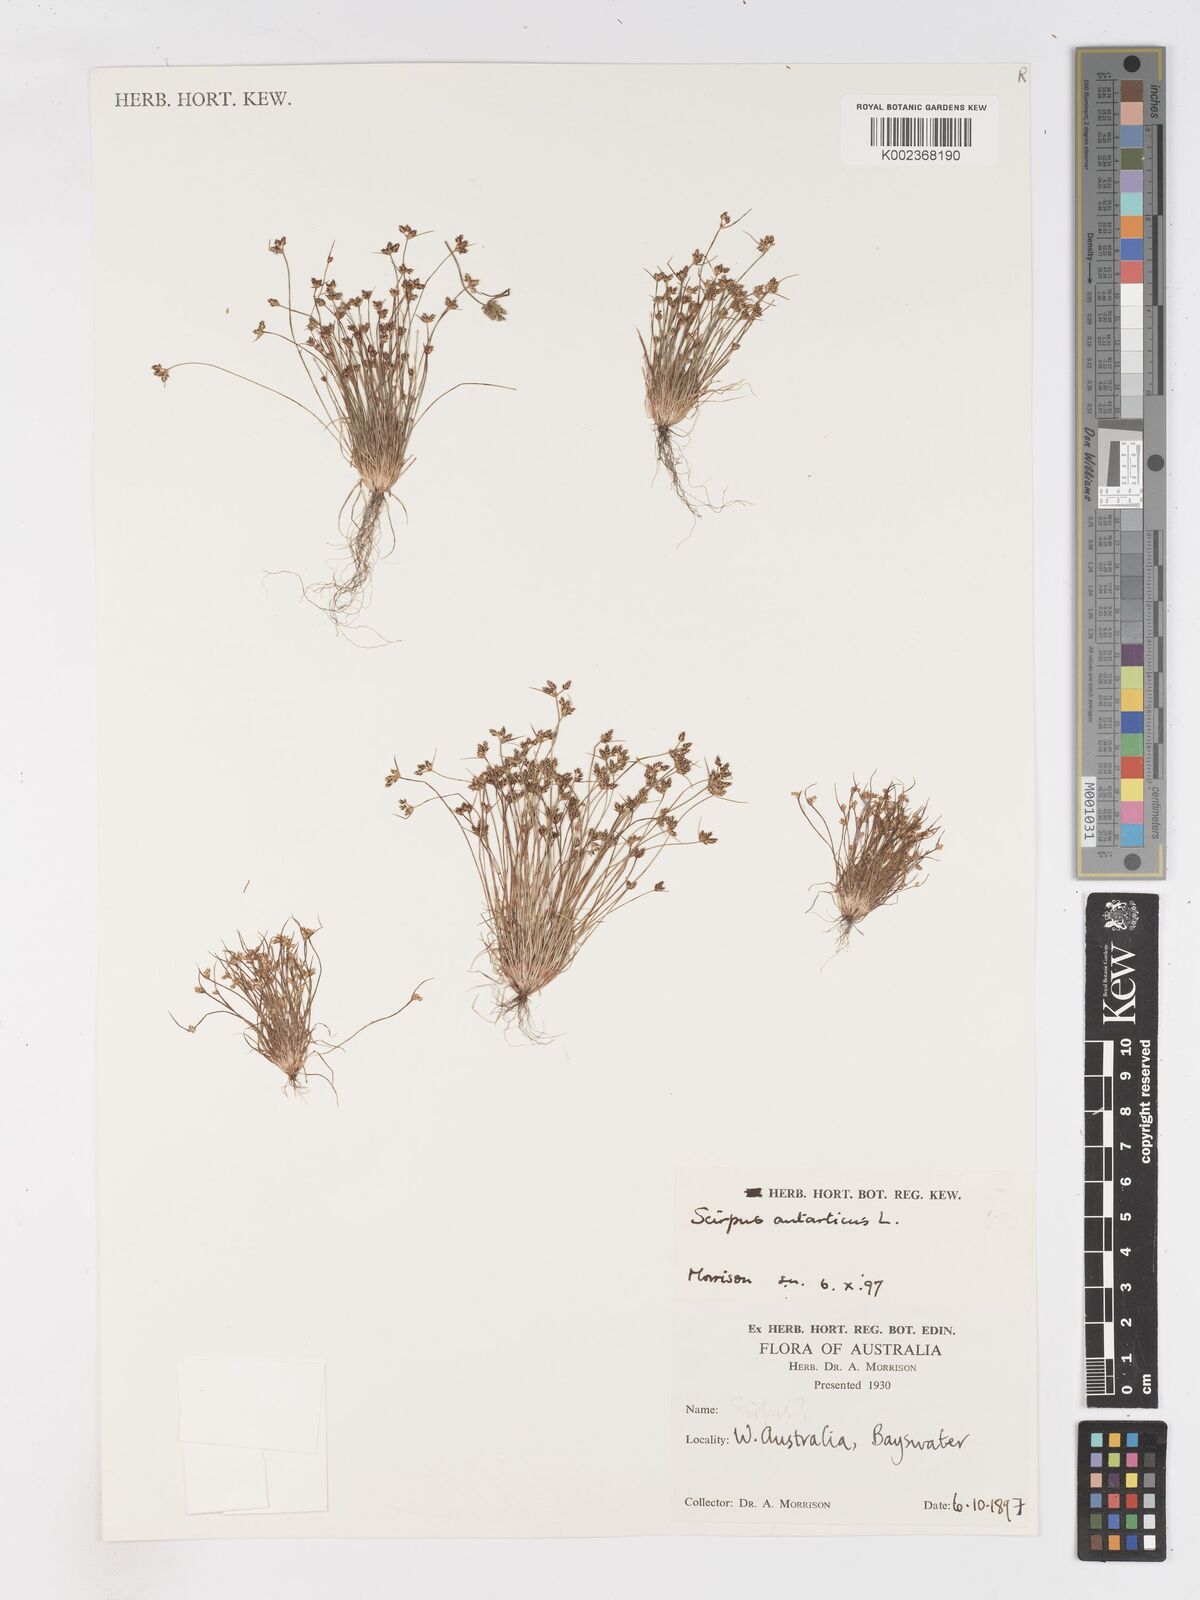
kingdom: Plantae
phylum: Tracheophyta
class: Liliopsida
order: Poales
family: Cyperaceae
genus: Isolepis
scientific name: Isolepis antarctica
